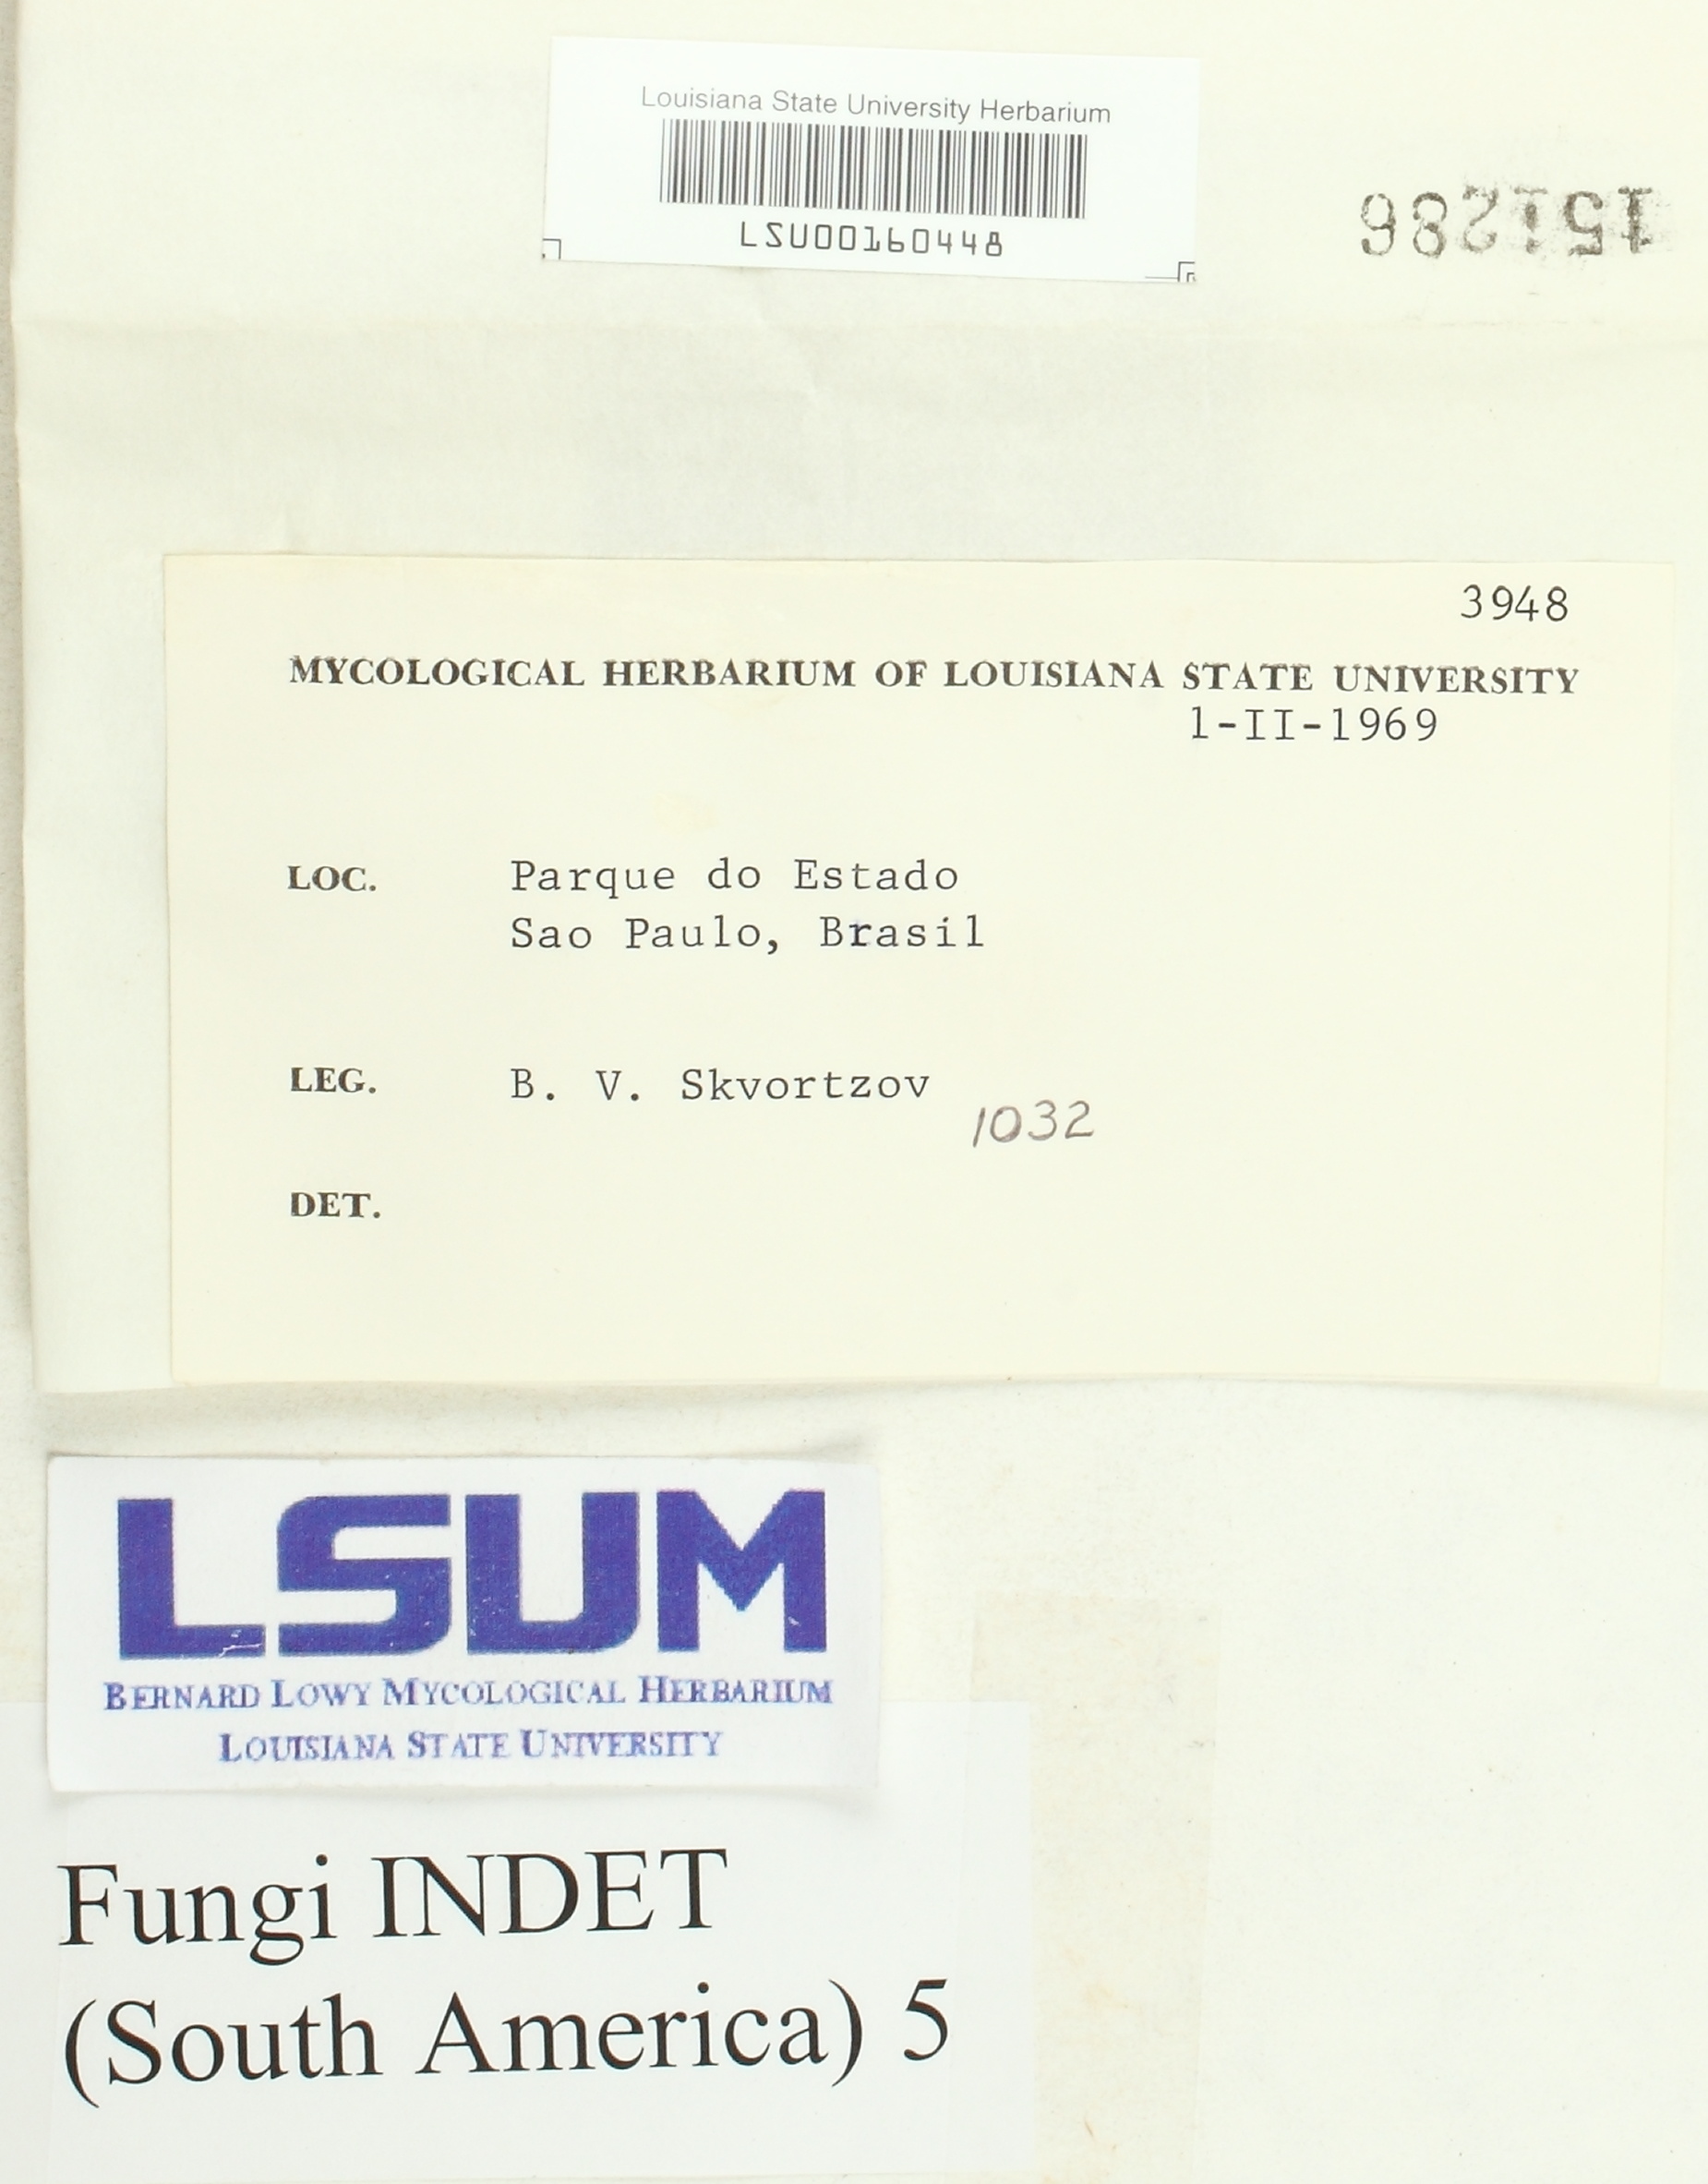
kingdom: Fungi
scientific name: Fungi
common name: Fungi
